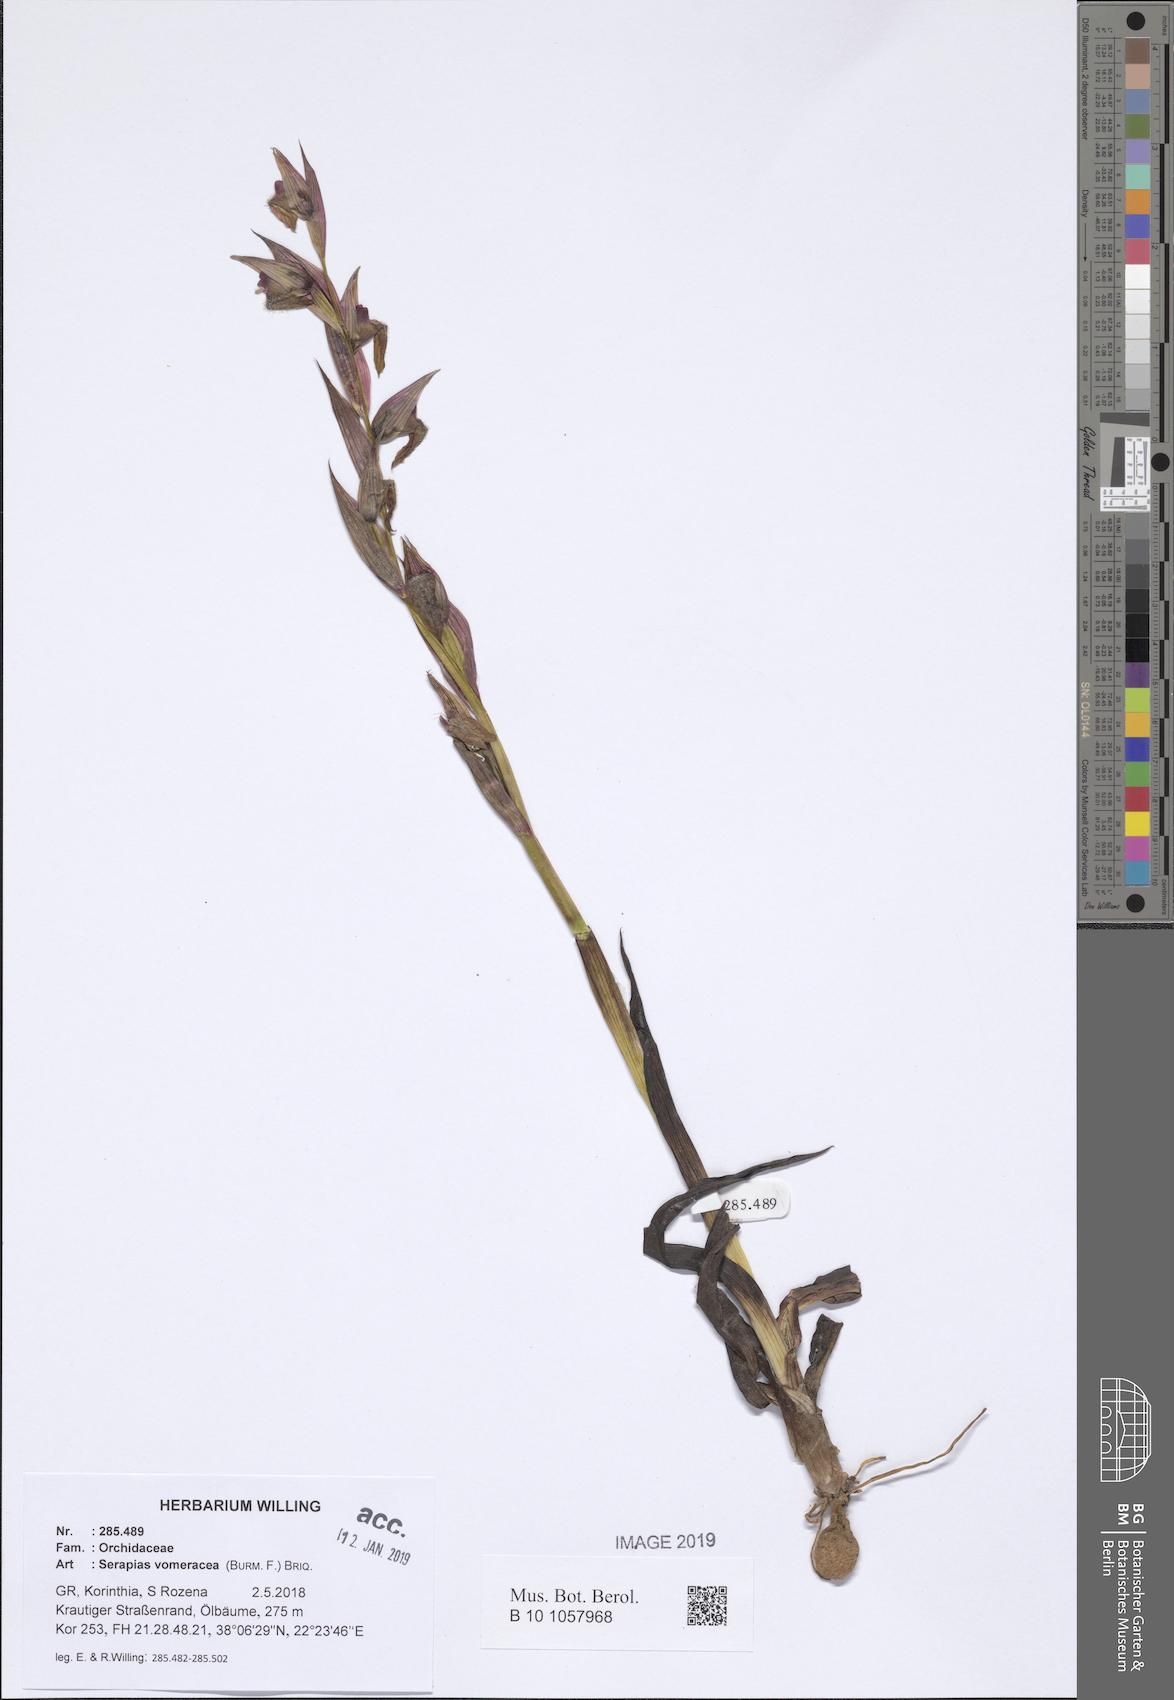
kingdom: Plantae
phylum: Tracheophyta
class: Liliopsida
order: Asparagales
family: Orchidaceae
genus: Serapias
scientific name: Serapias vomeracea
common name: Long-lipped tongue-orchid
